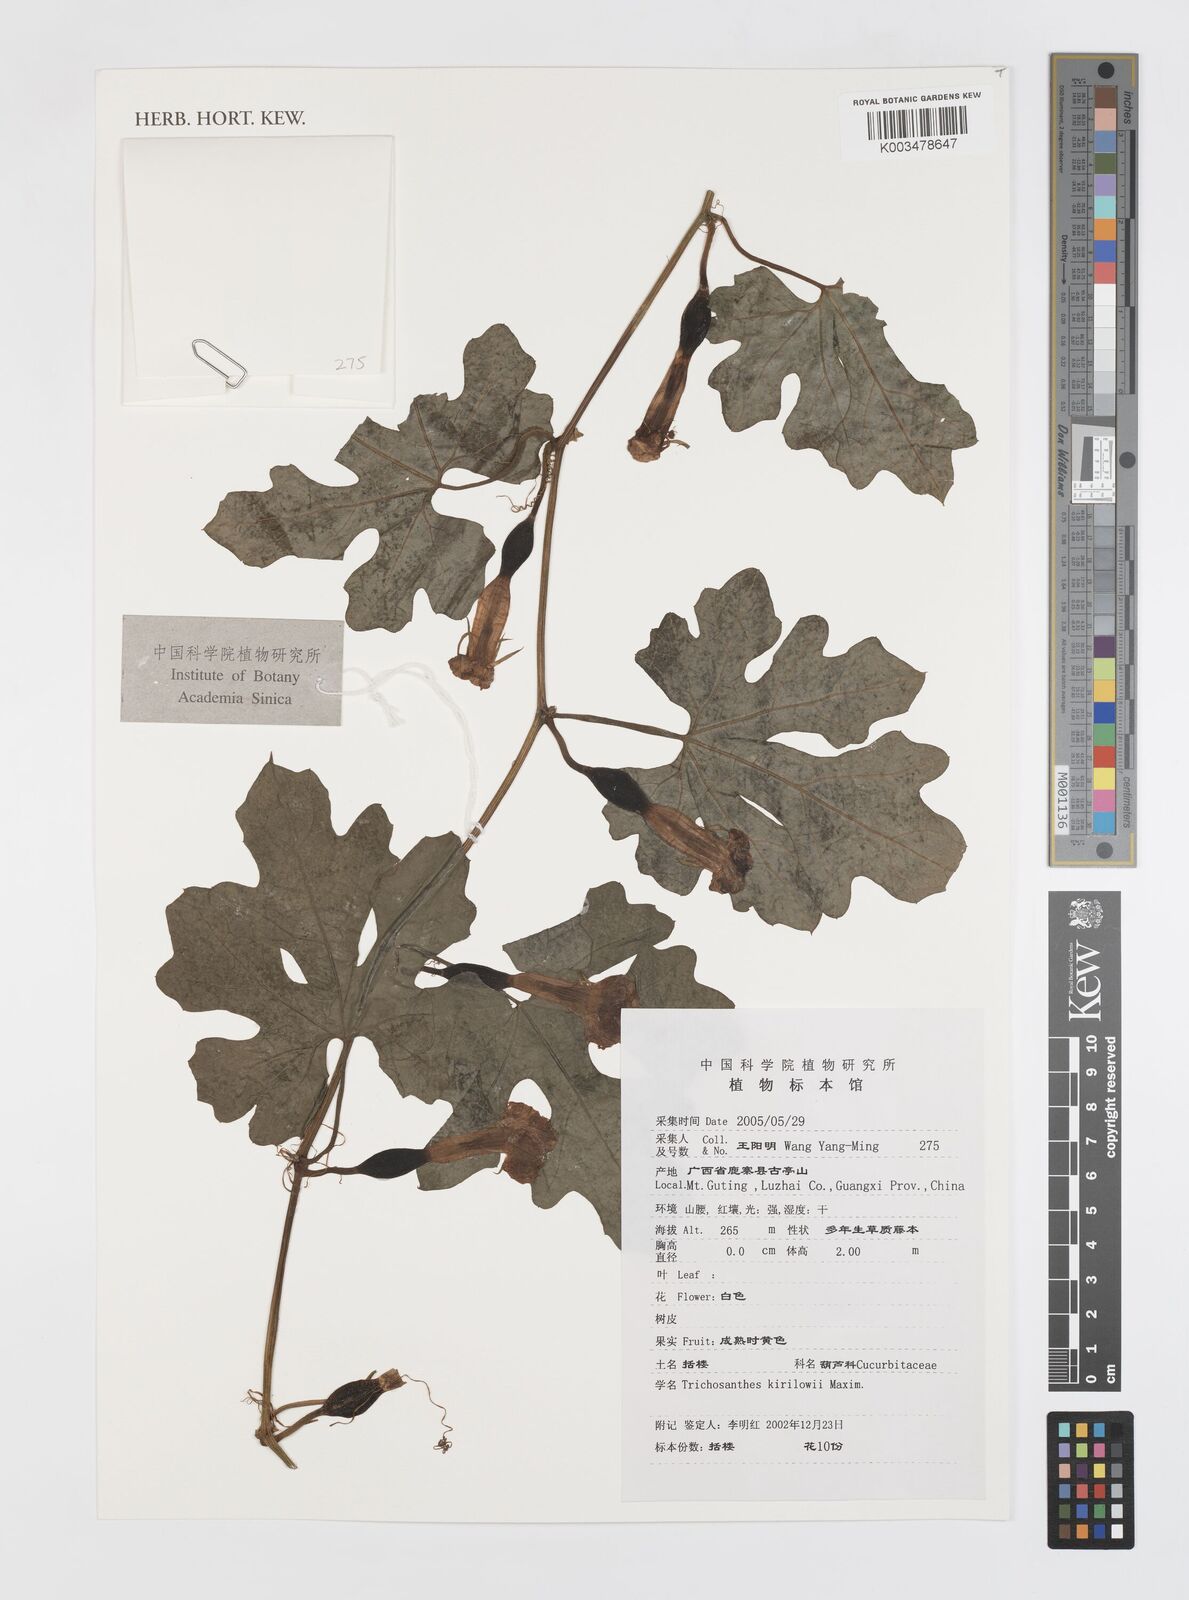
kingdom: Plantae
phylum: Tracheophyta
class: Magnoliopsida
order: Cucurbitales
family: Cucurbitaceae
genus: Trichosanthes
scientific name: Trichosanthes kirilowii
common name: Chinese-cucumber
